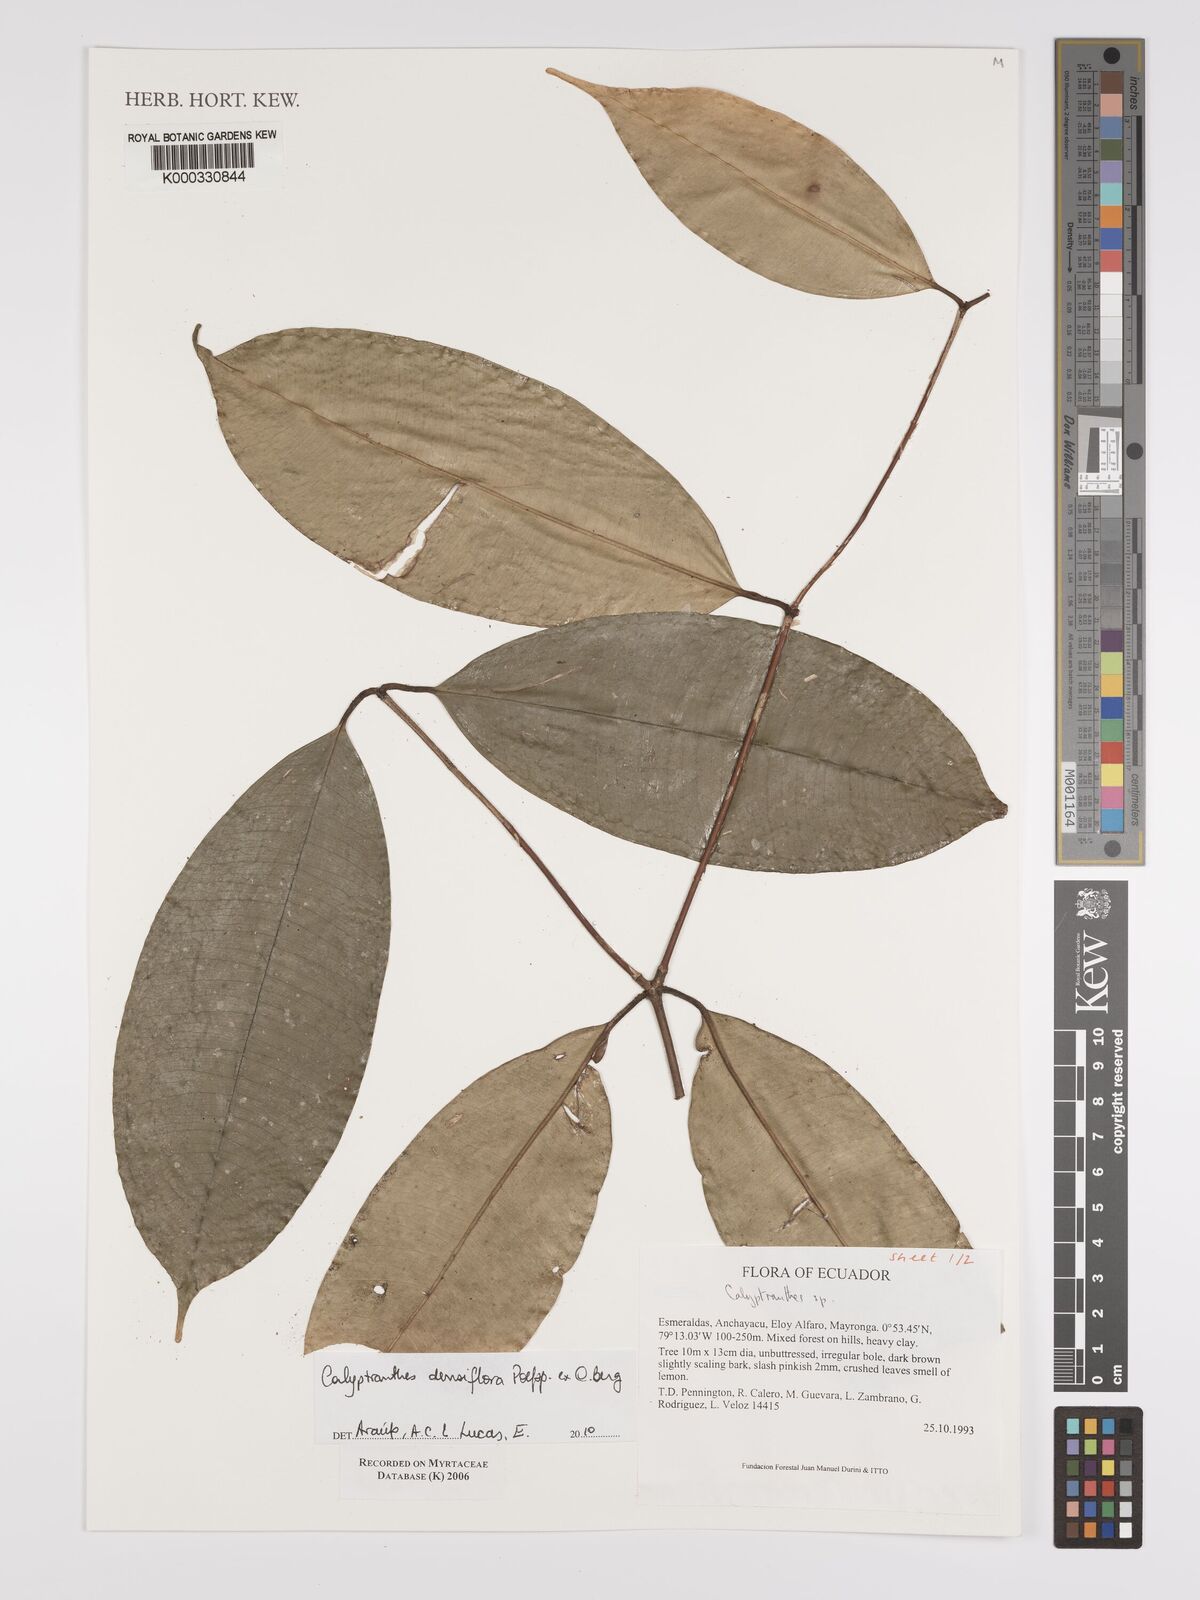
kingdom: Plantae
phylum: Tracheophyta
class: Magnoliopsida
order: Myrtales
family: Myrtaceae
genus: Calyptranthes
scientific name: Calyptranthes
